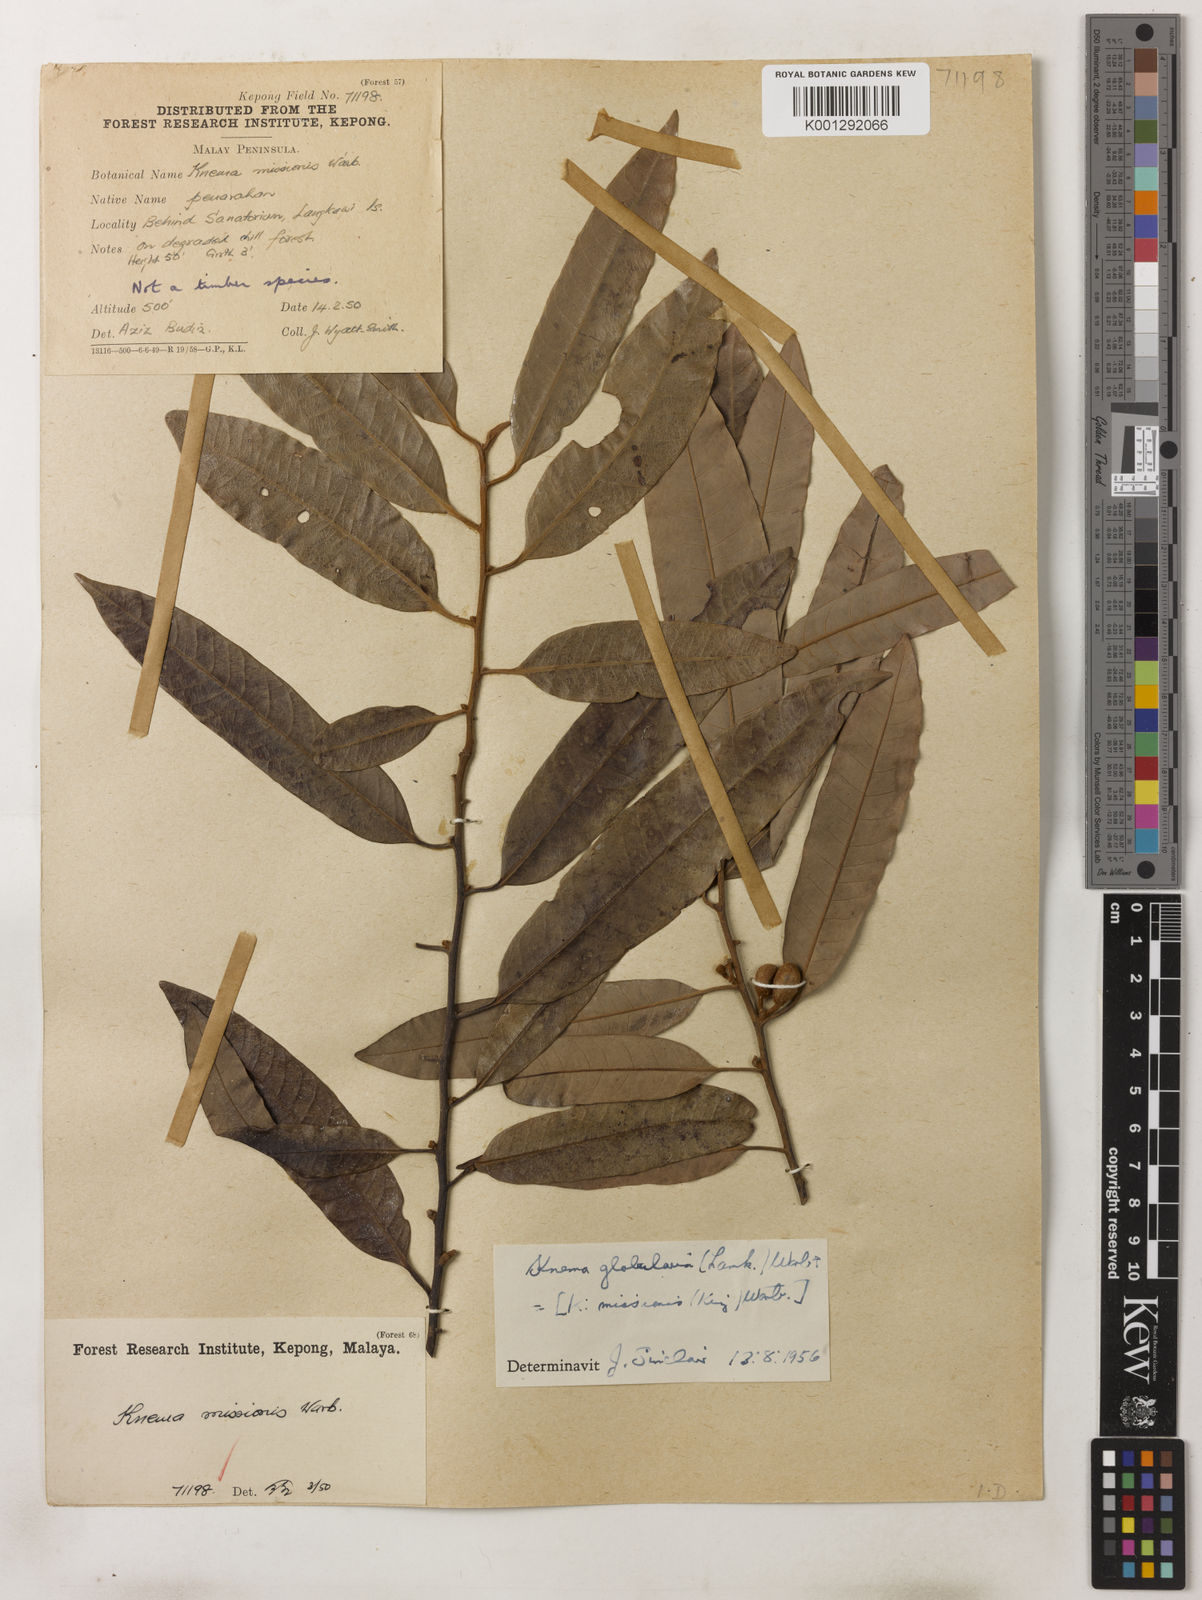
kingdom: Plantae
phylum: Tracheophyta
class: Magnoliopsida
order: Magnoliales
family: Myristicaceae
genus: Knema
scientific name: Knema globularia
